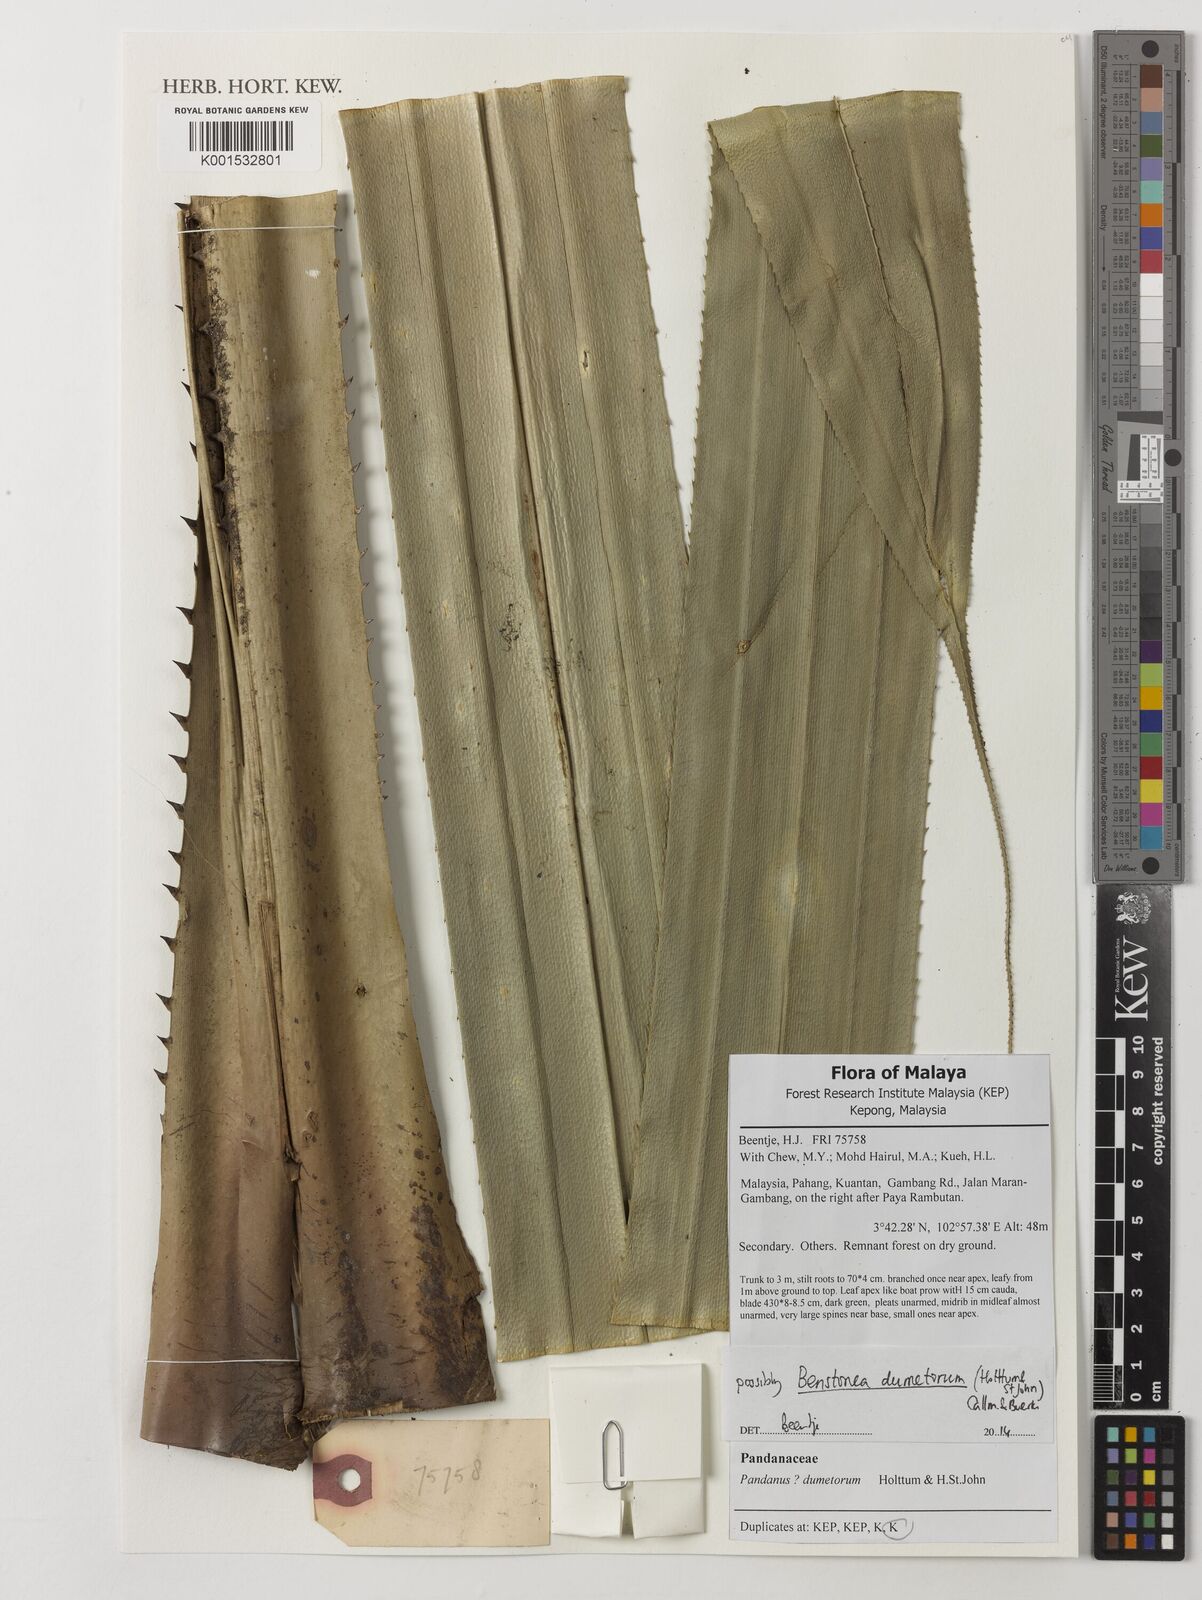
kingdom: Plantae
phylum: Tracheophyta
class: Liliopsida
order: Pandanales
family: Pandanaceae
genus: Benstonea
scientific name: Benstonea dumetorum
